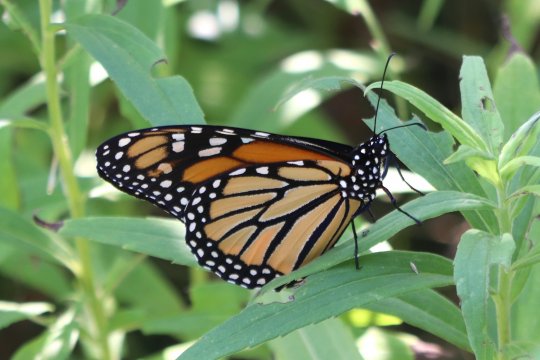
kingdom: Animalia
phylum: Arthropoda
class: Insecta
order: Lepidoptera
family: Nymphalidae
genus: Danaus
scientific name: Danaus plexippus
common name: Monarch
